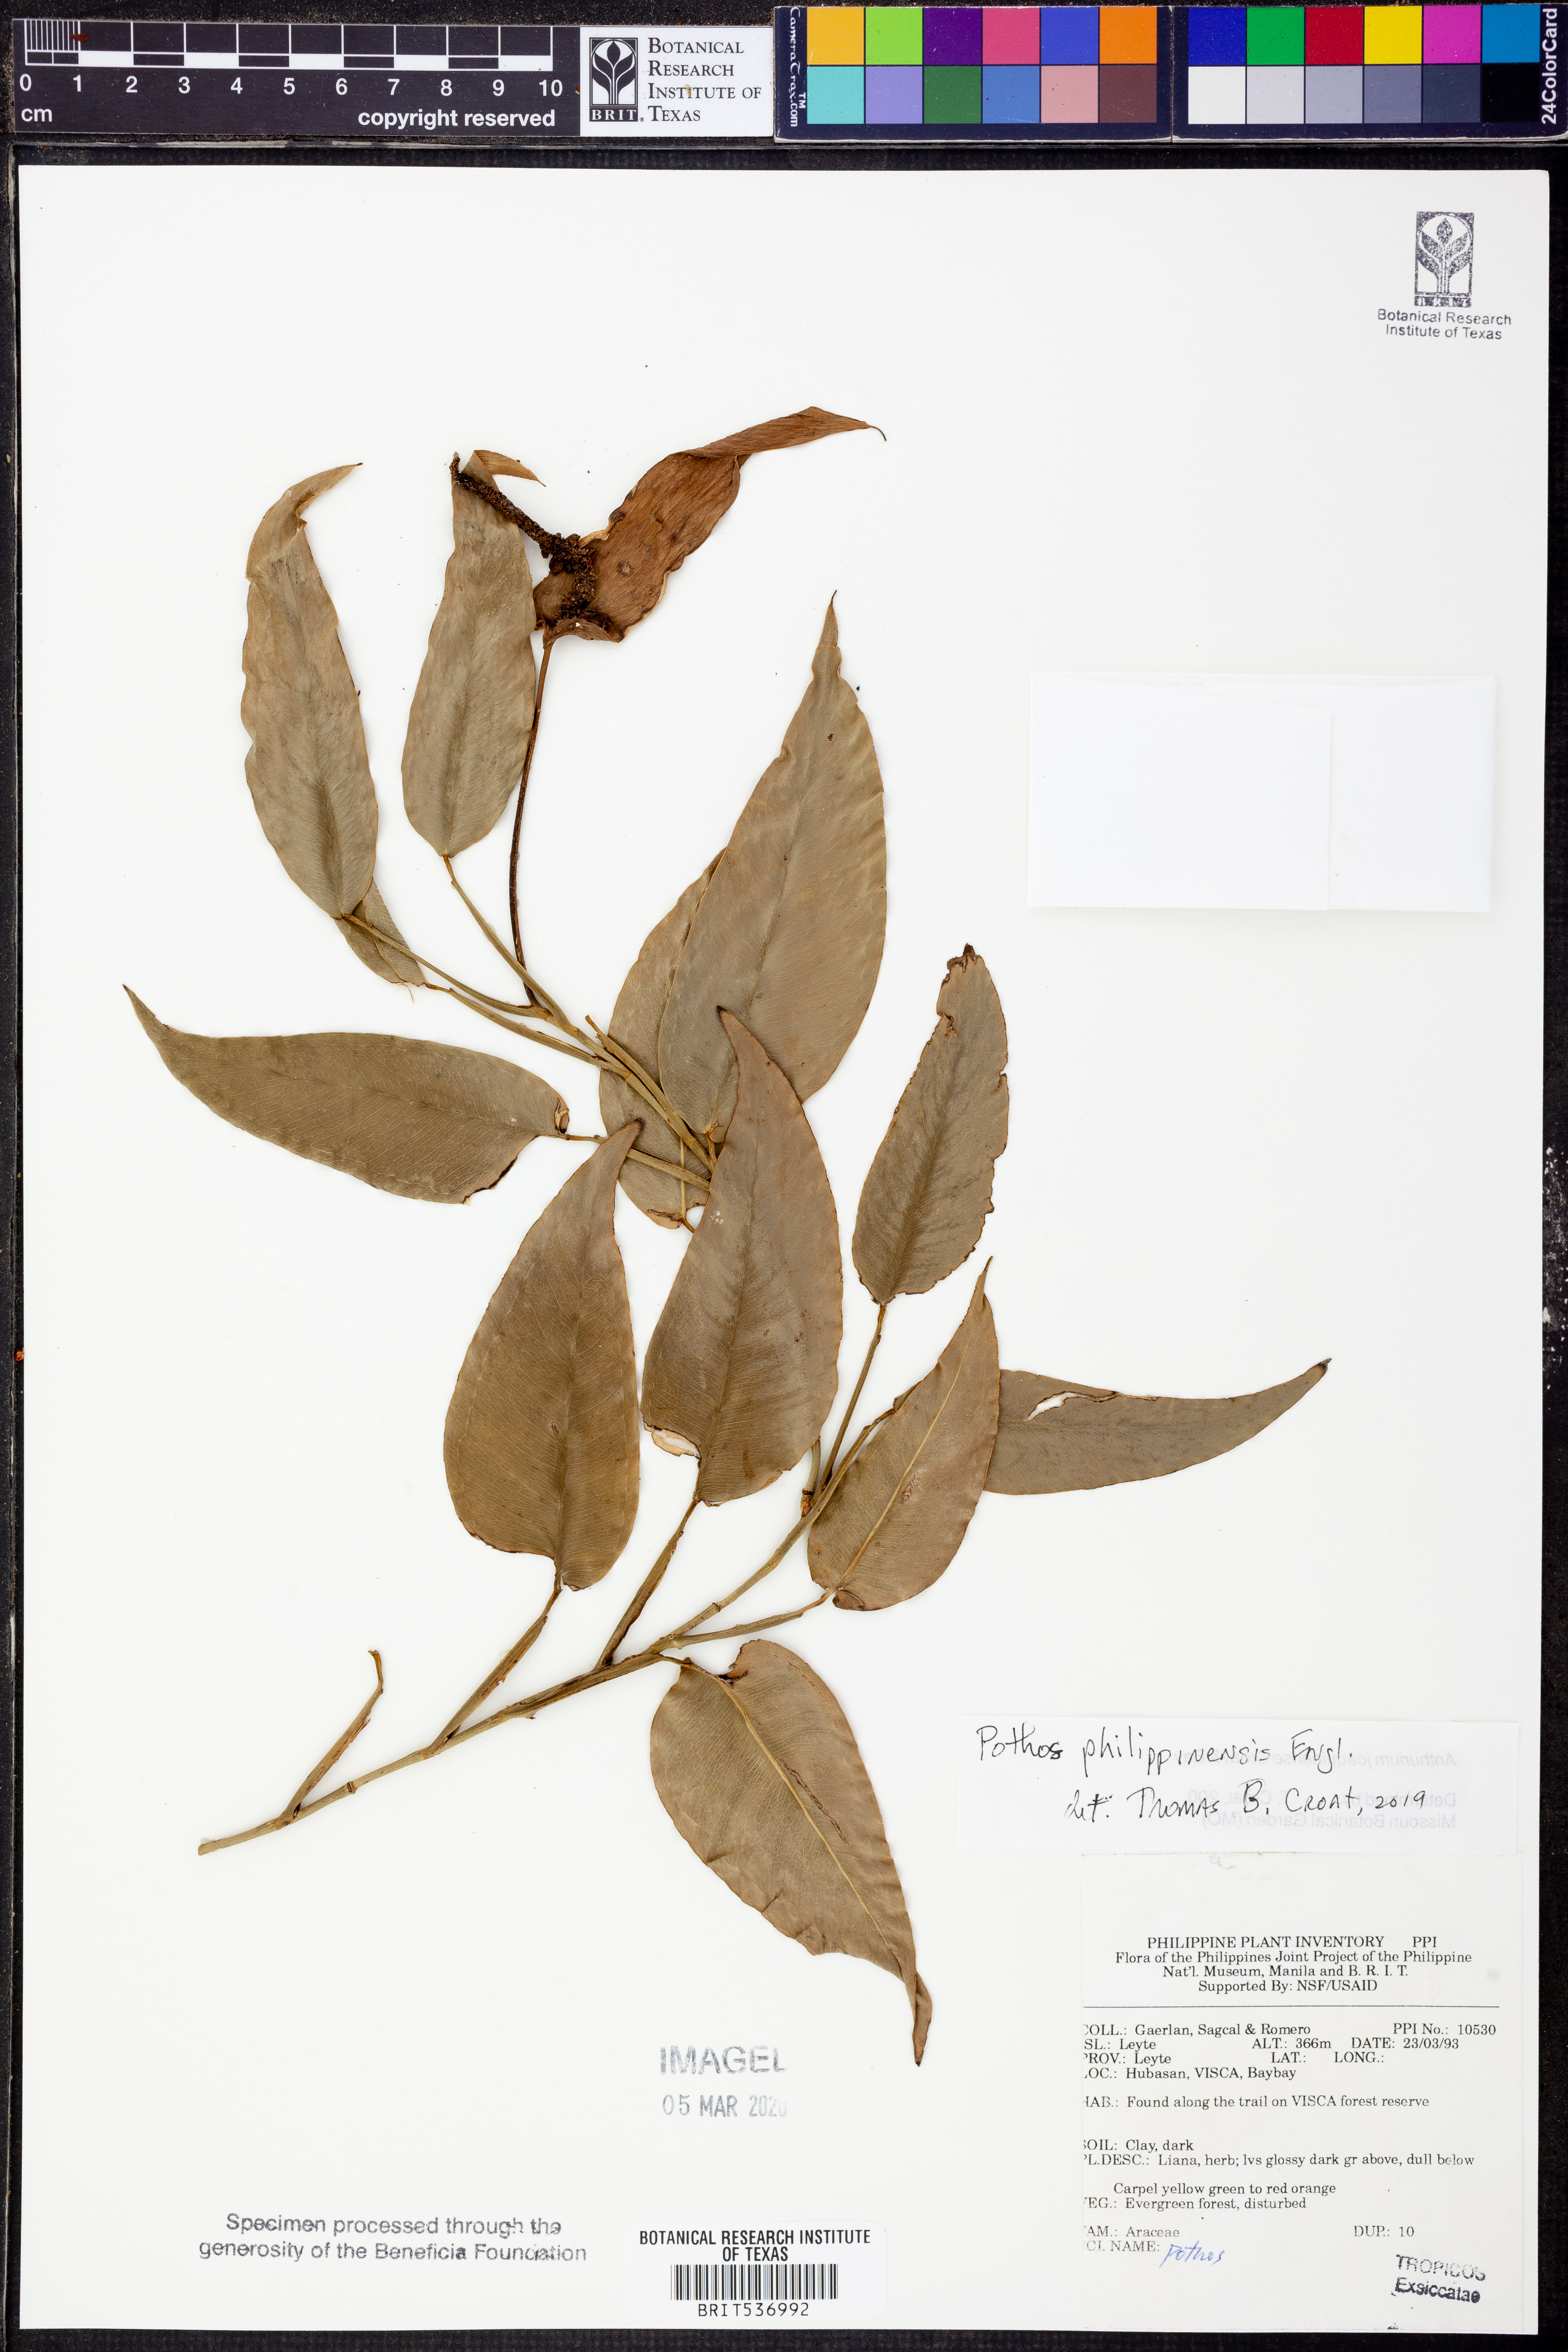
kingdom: Plantae
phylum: Tracheophyta
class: Liliopsida
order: Alismatales
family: Araceae
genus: Pothos
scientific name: Pothos philippinensis
